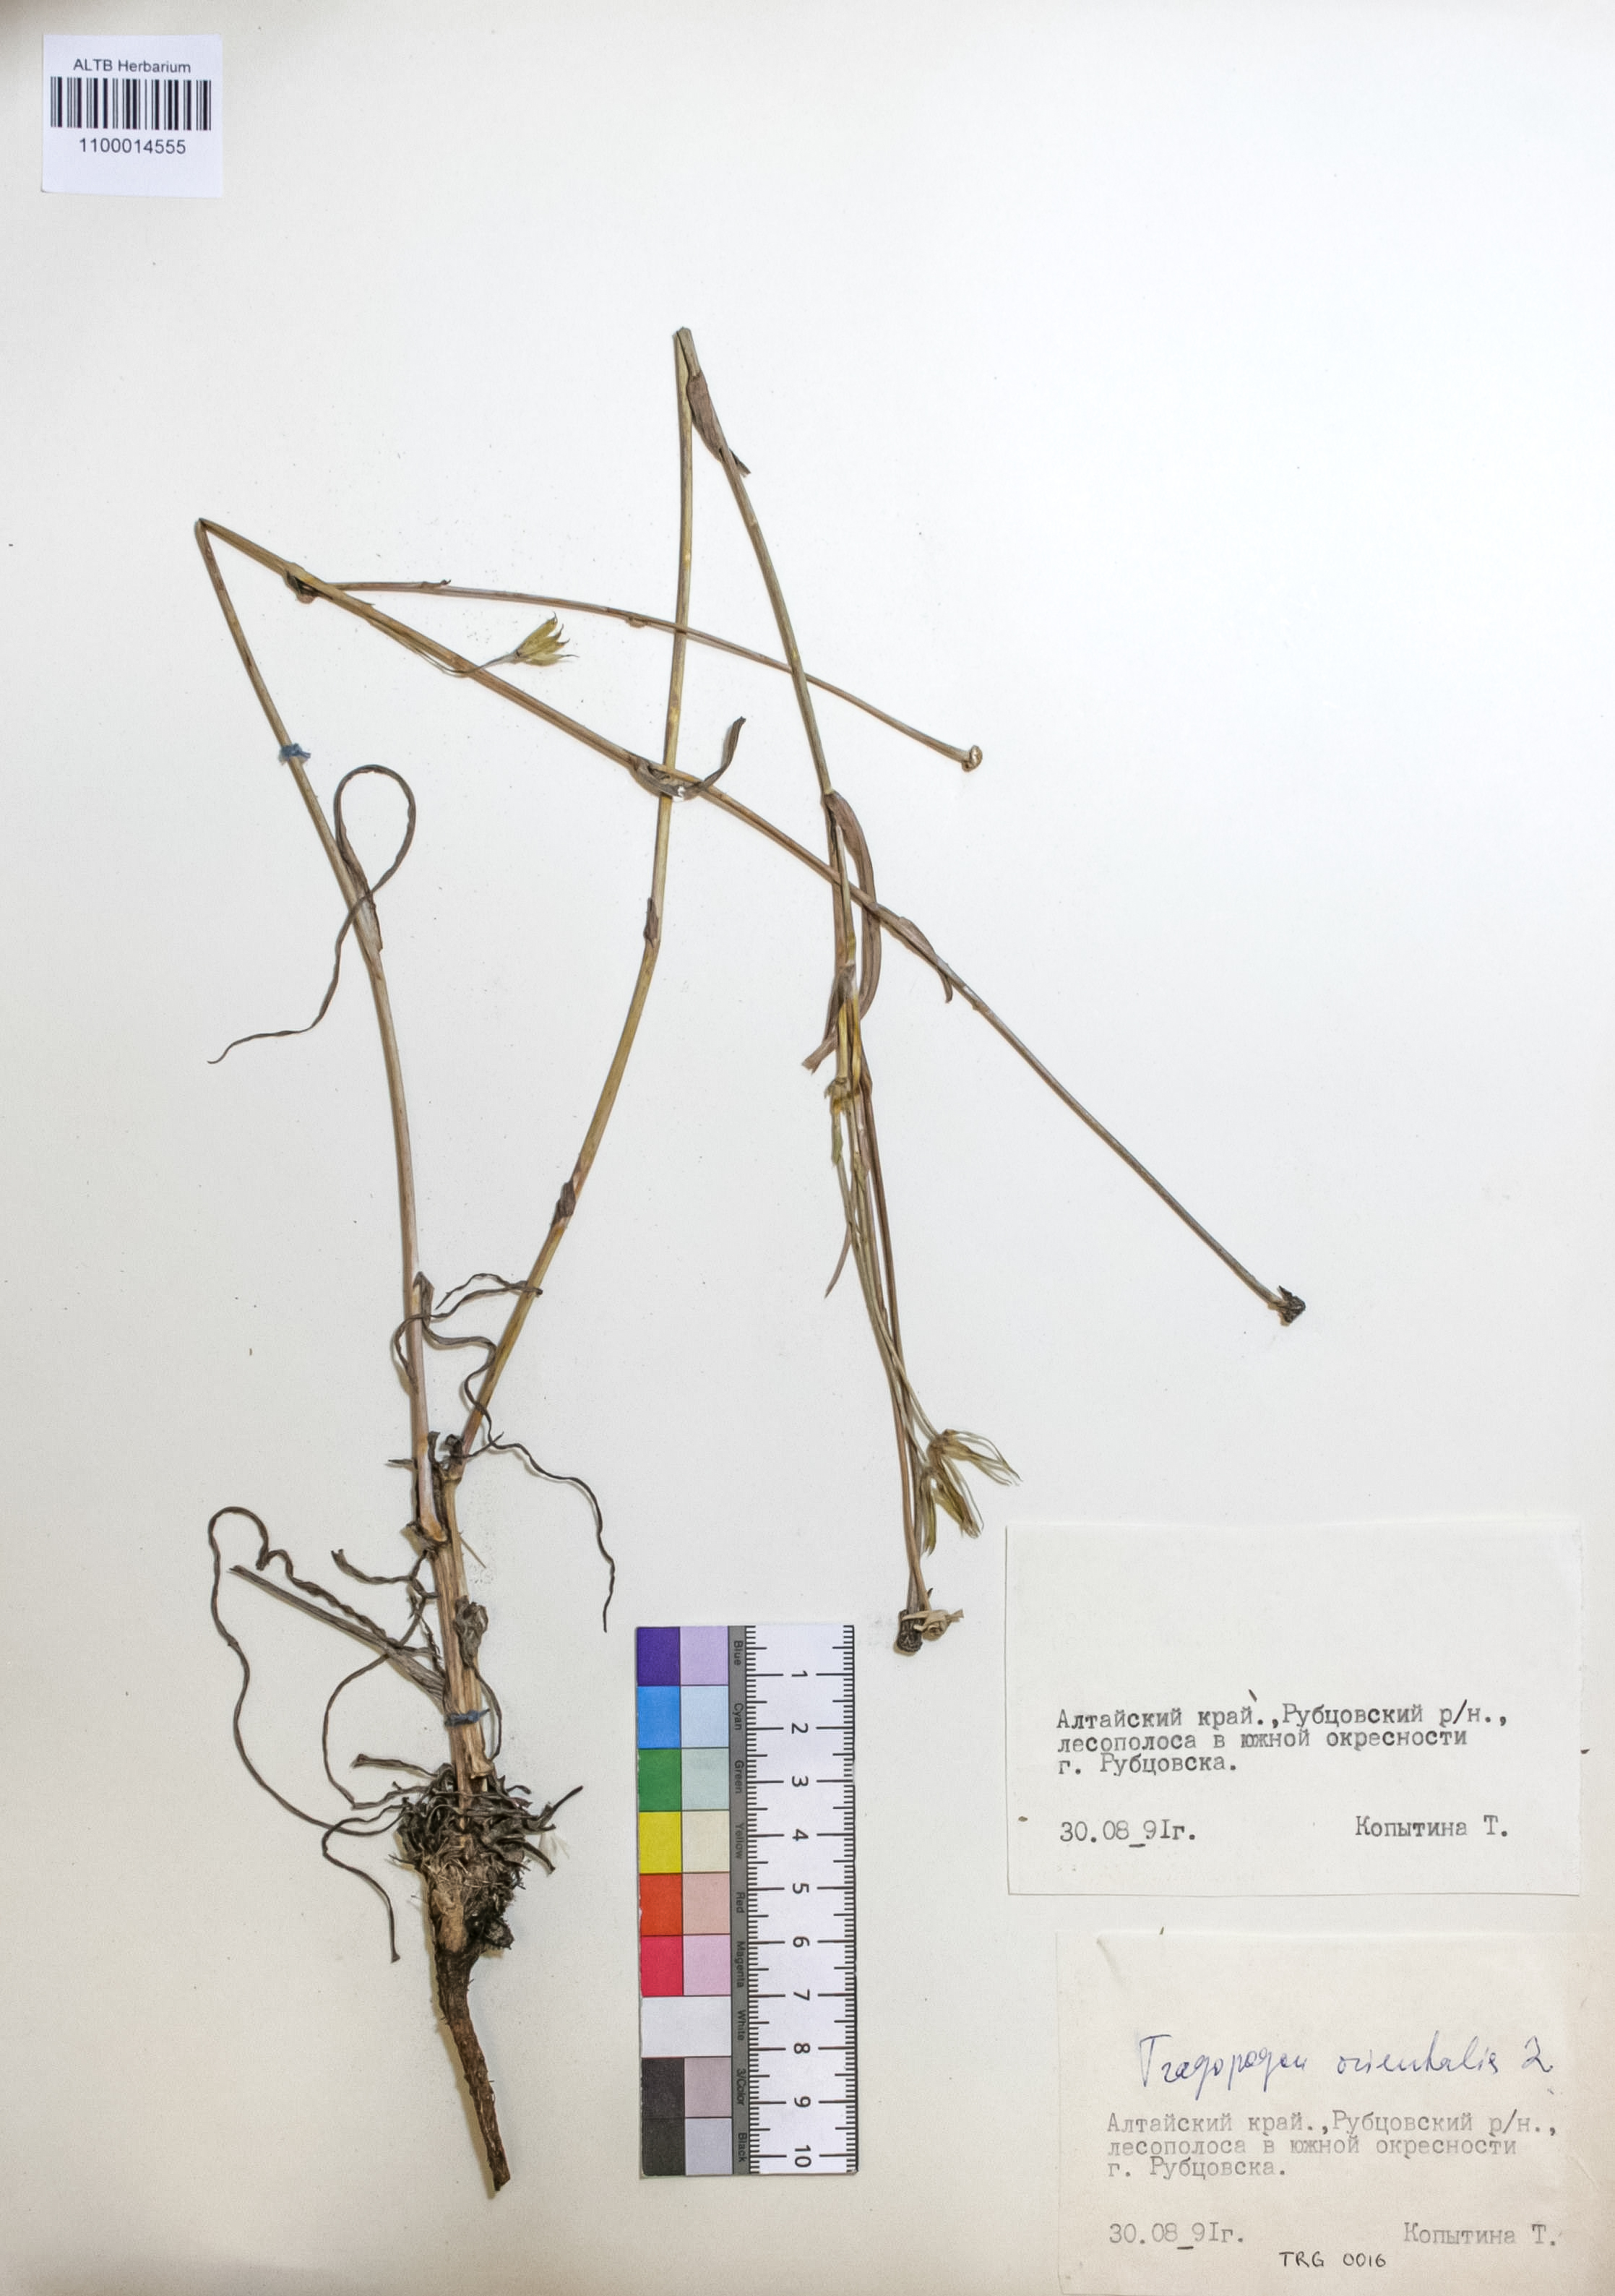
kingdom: Plantae
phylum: Tracheophyta
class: Magnoliopsida
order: Asterales
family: Asteraceae
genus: Tragopogon
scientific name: Tragopogon orientalis
